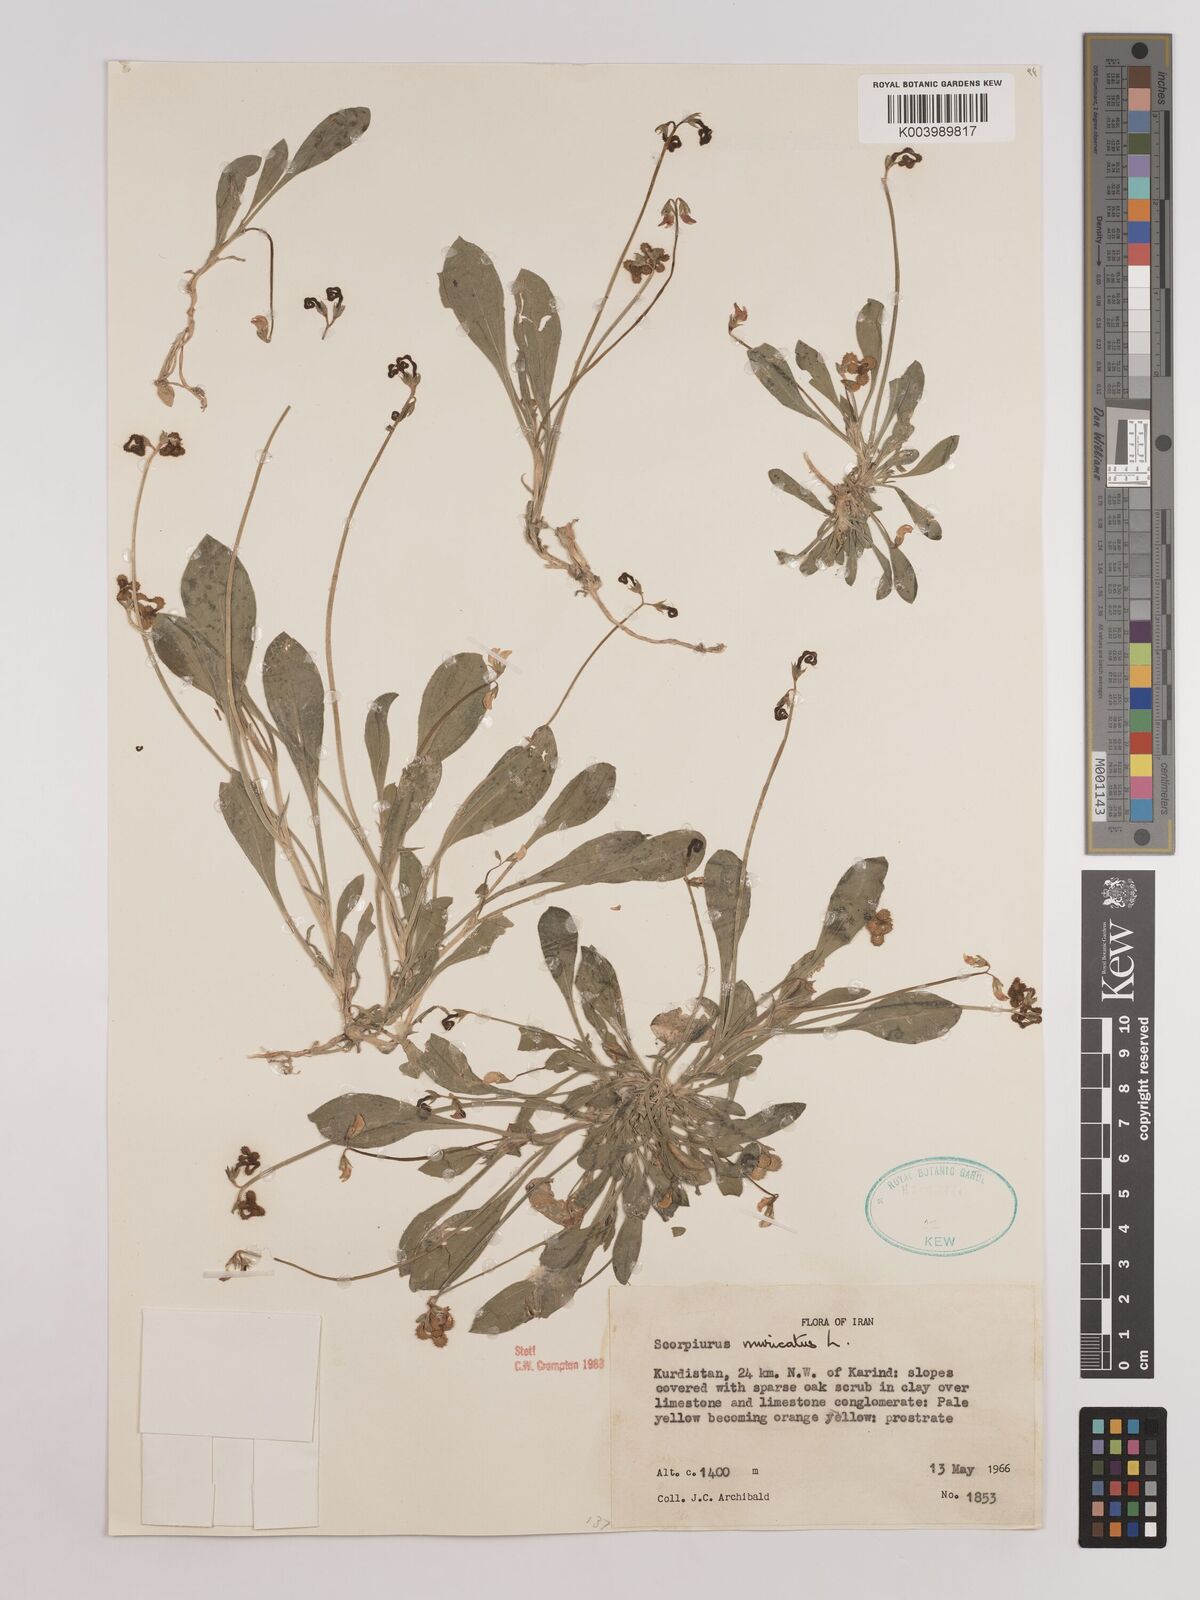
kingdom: Plantae
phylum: Tracheophyta
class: Magnoliopsida
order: Fabales
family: Fabaceae
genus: Scorpiurus
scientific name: Scorpiurus muricatus
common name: Caterpillar-plant
